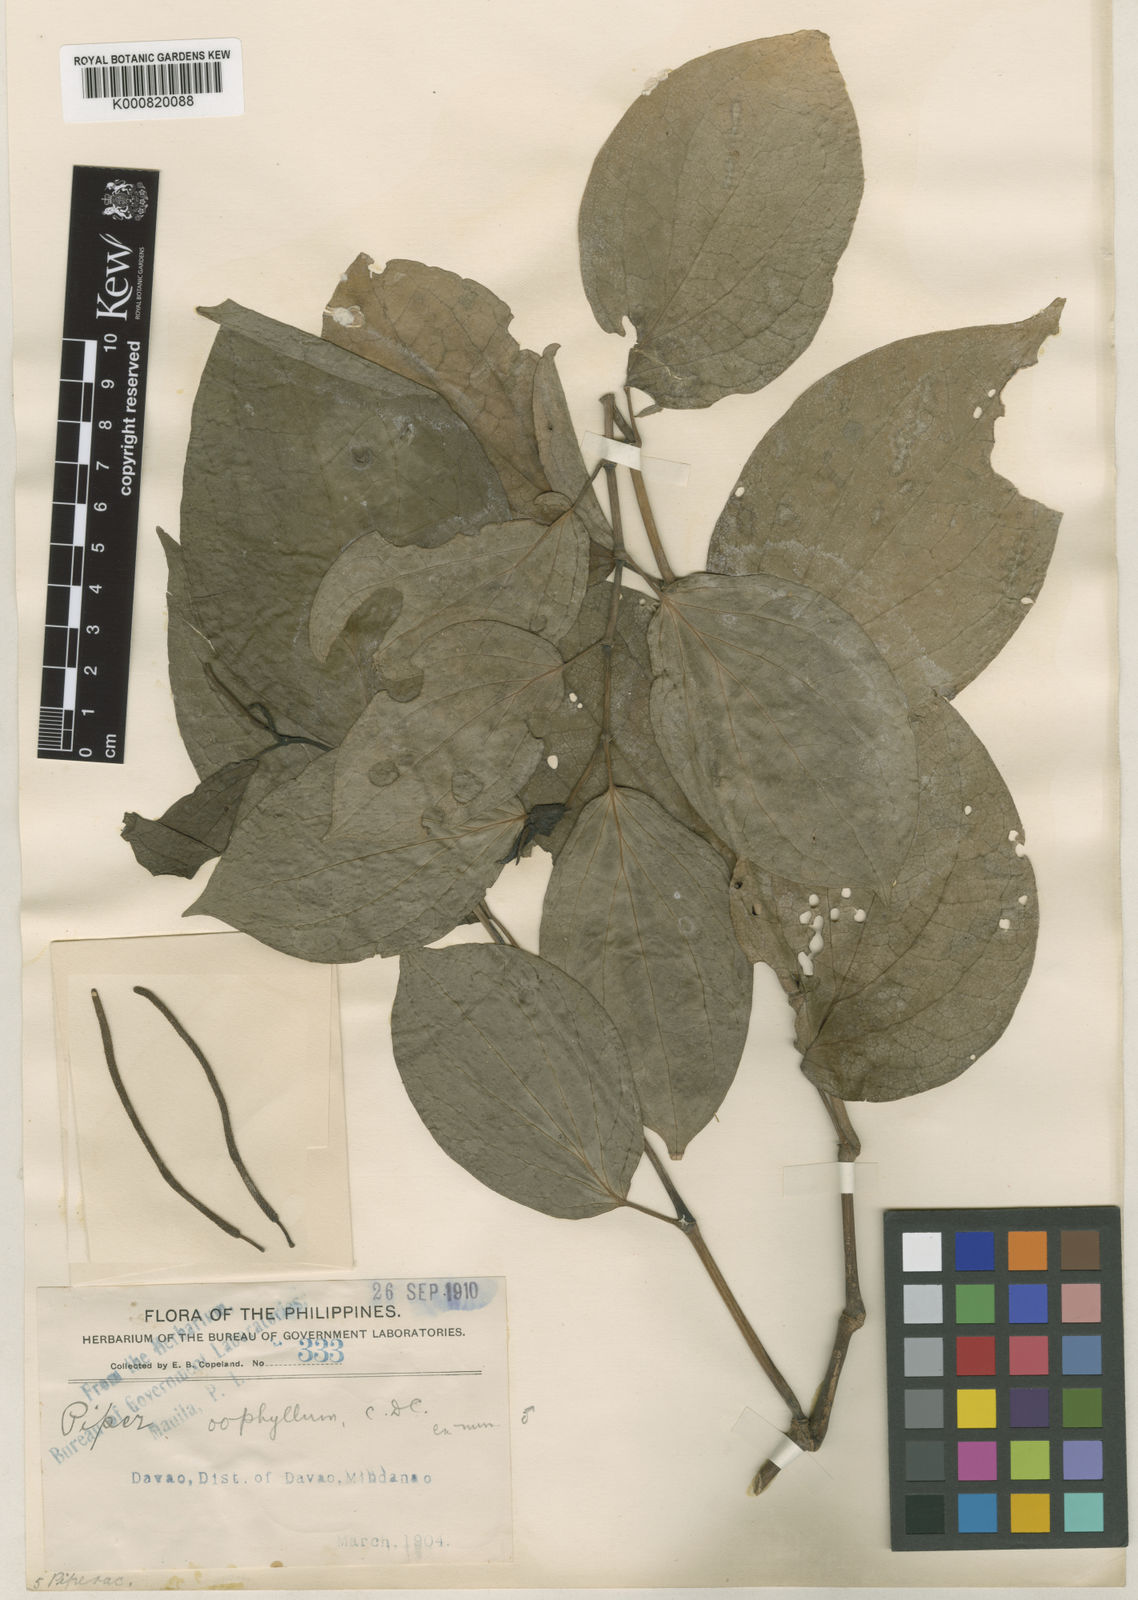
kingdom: Plantae
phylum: Tracheophyta
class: Magnoliopsida
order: Piperales
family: Piperaceae
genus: Piper
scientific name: Piper sibulanum
